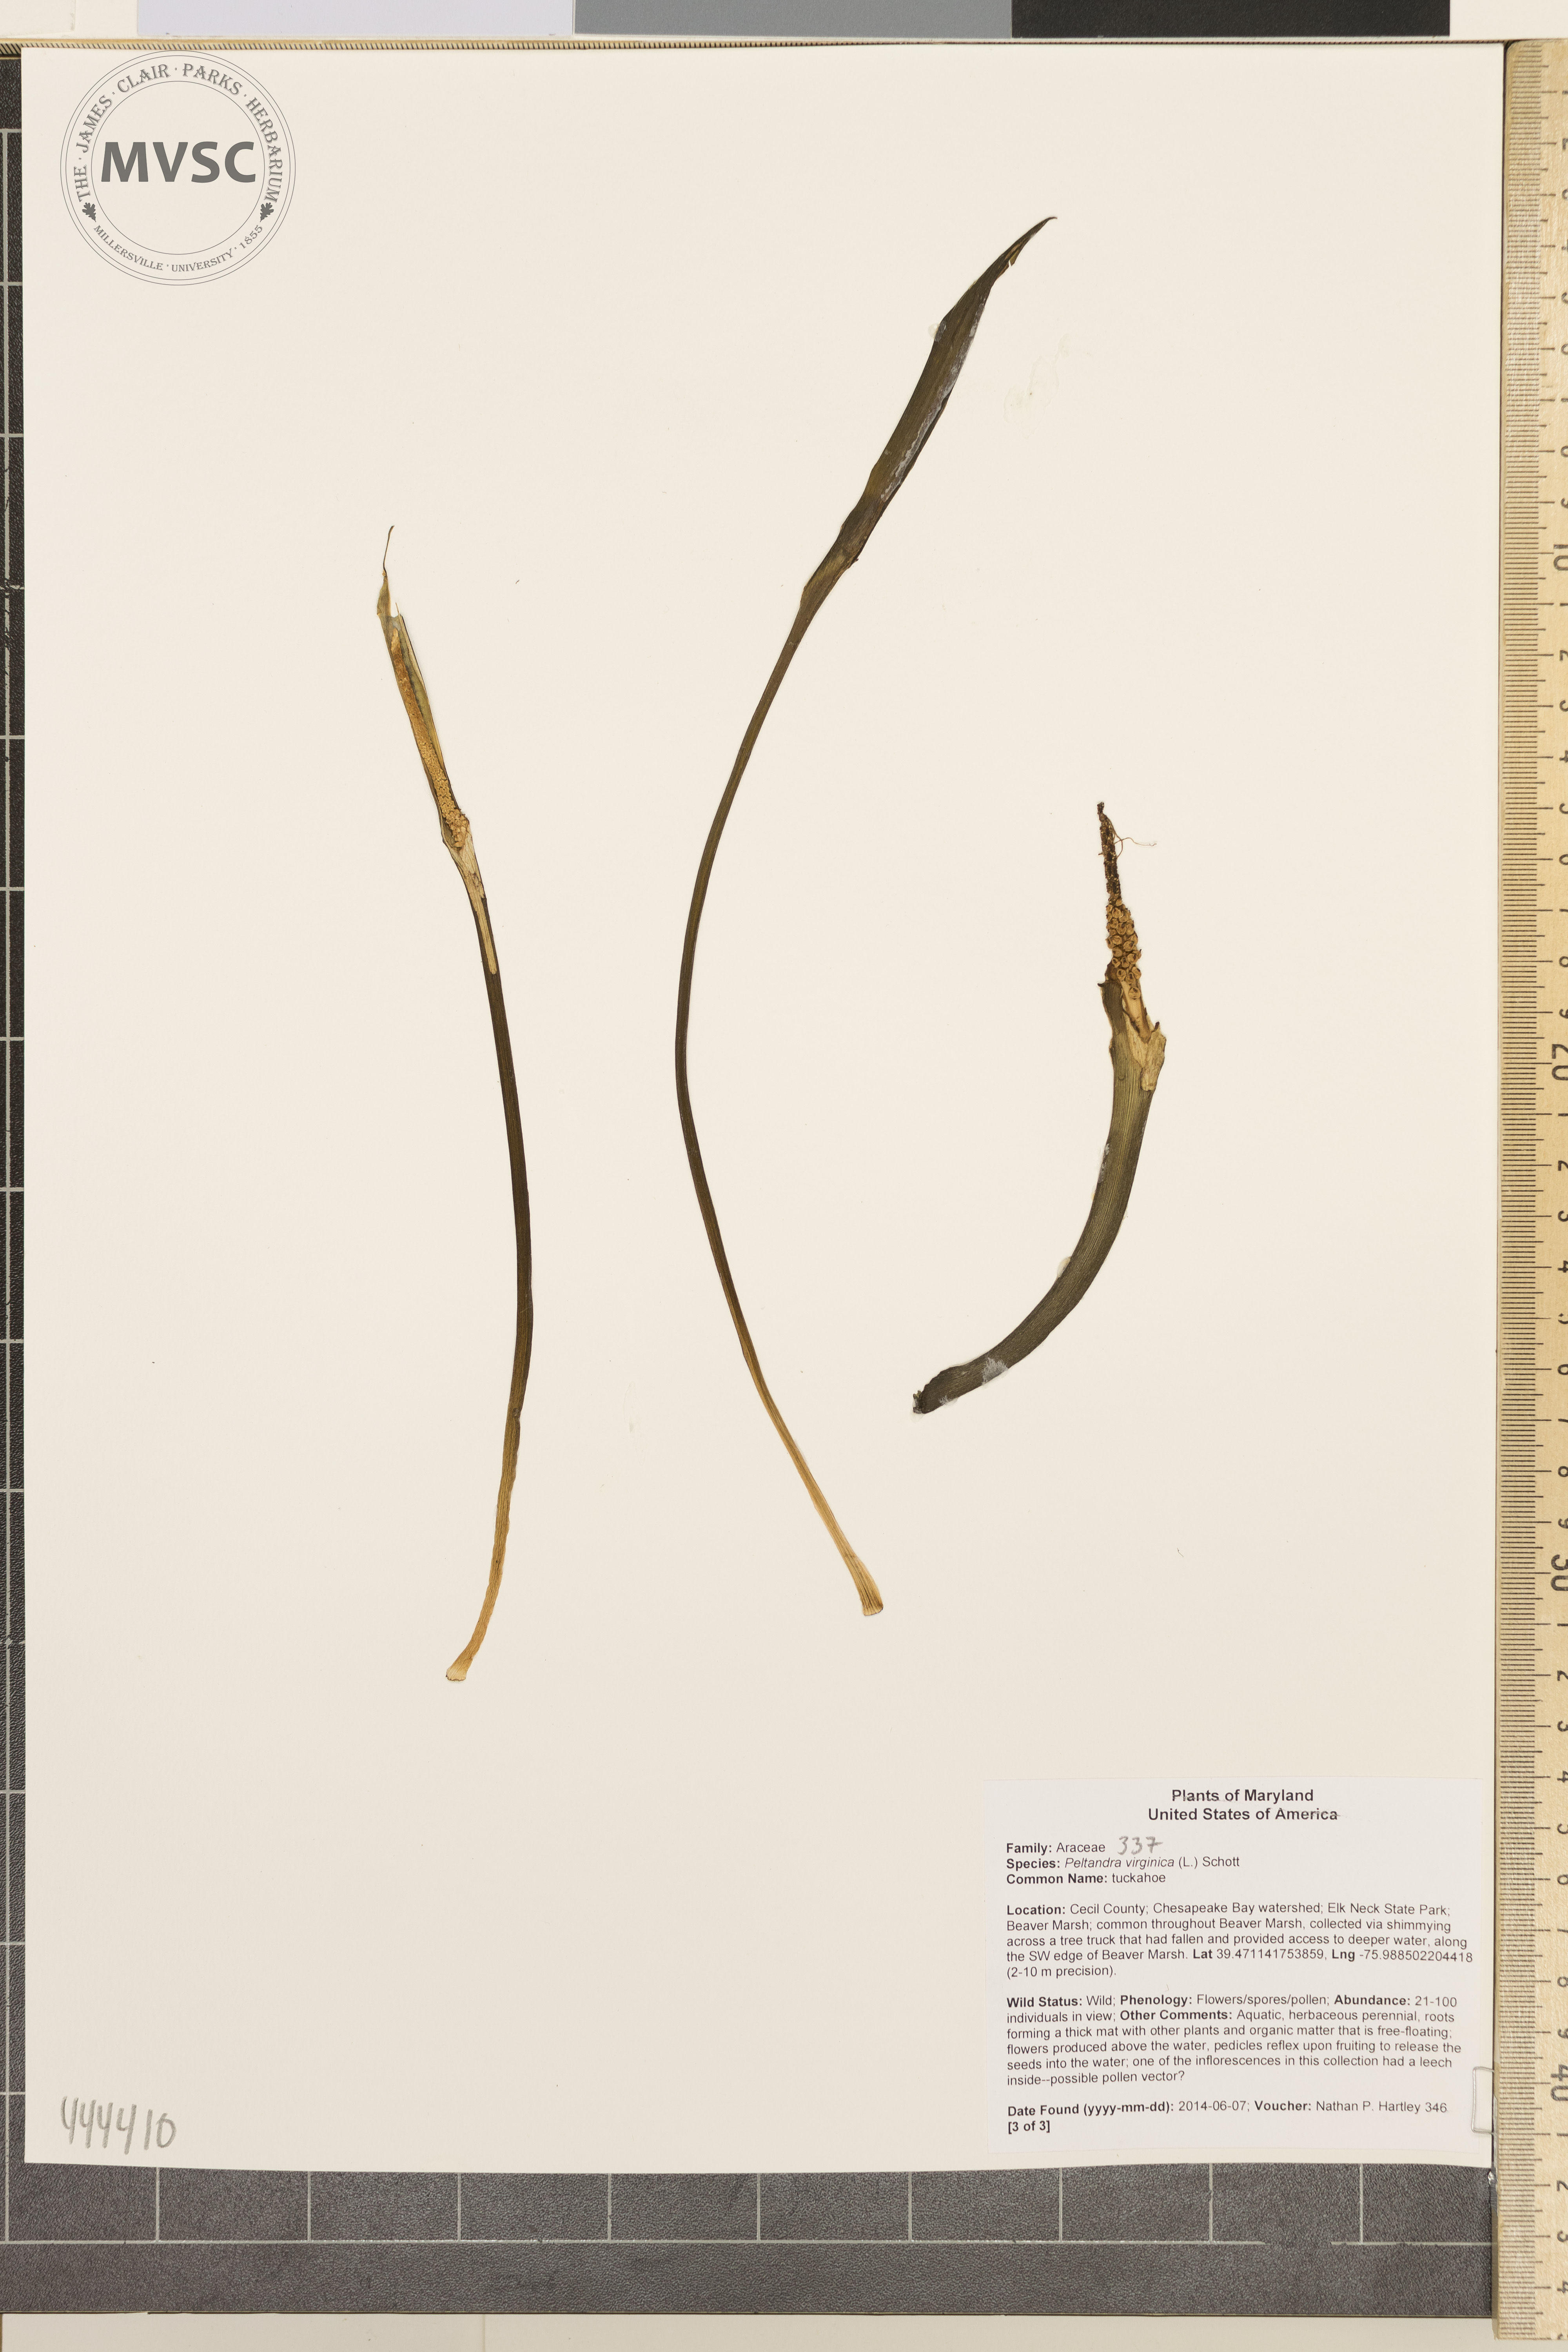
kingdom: Plantae
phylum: Tracheophyta
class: Liliopsida
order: Alismatales
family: Araceae
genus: Peltandra
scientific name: Peltandra virginica
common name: tuckahoe
